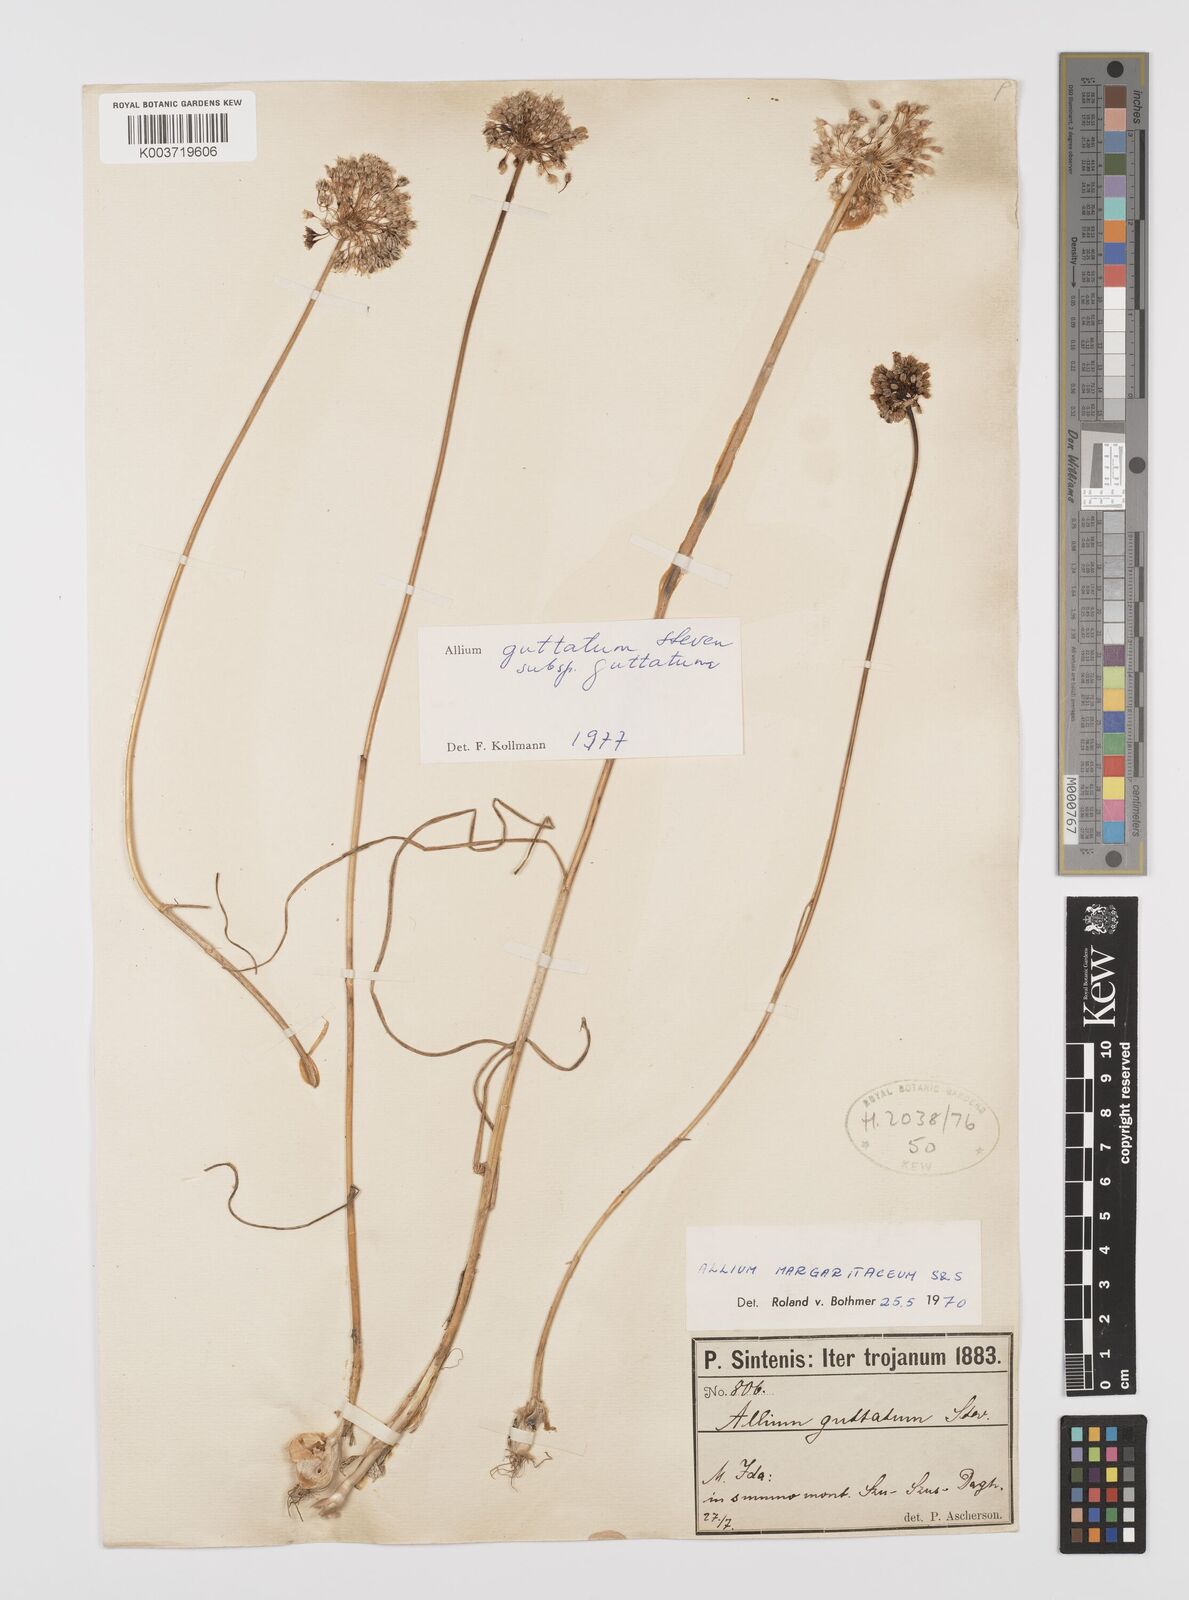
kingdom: Plantae
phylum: Tracheophyta
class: Liliopsida
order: Asparagales
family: Amaryllidaceae
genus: Allium
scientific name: Allium guttatum
